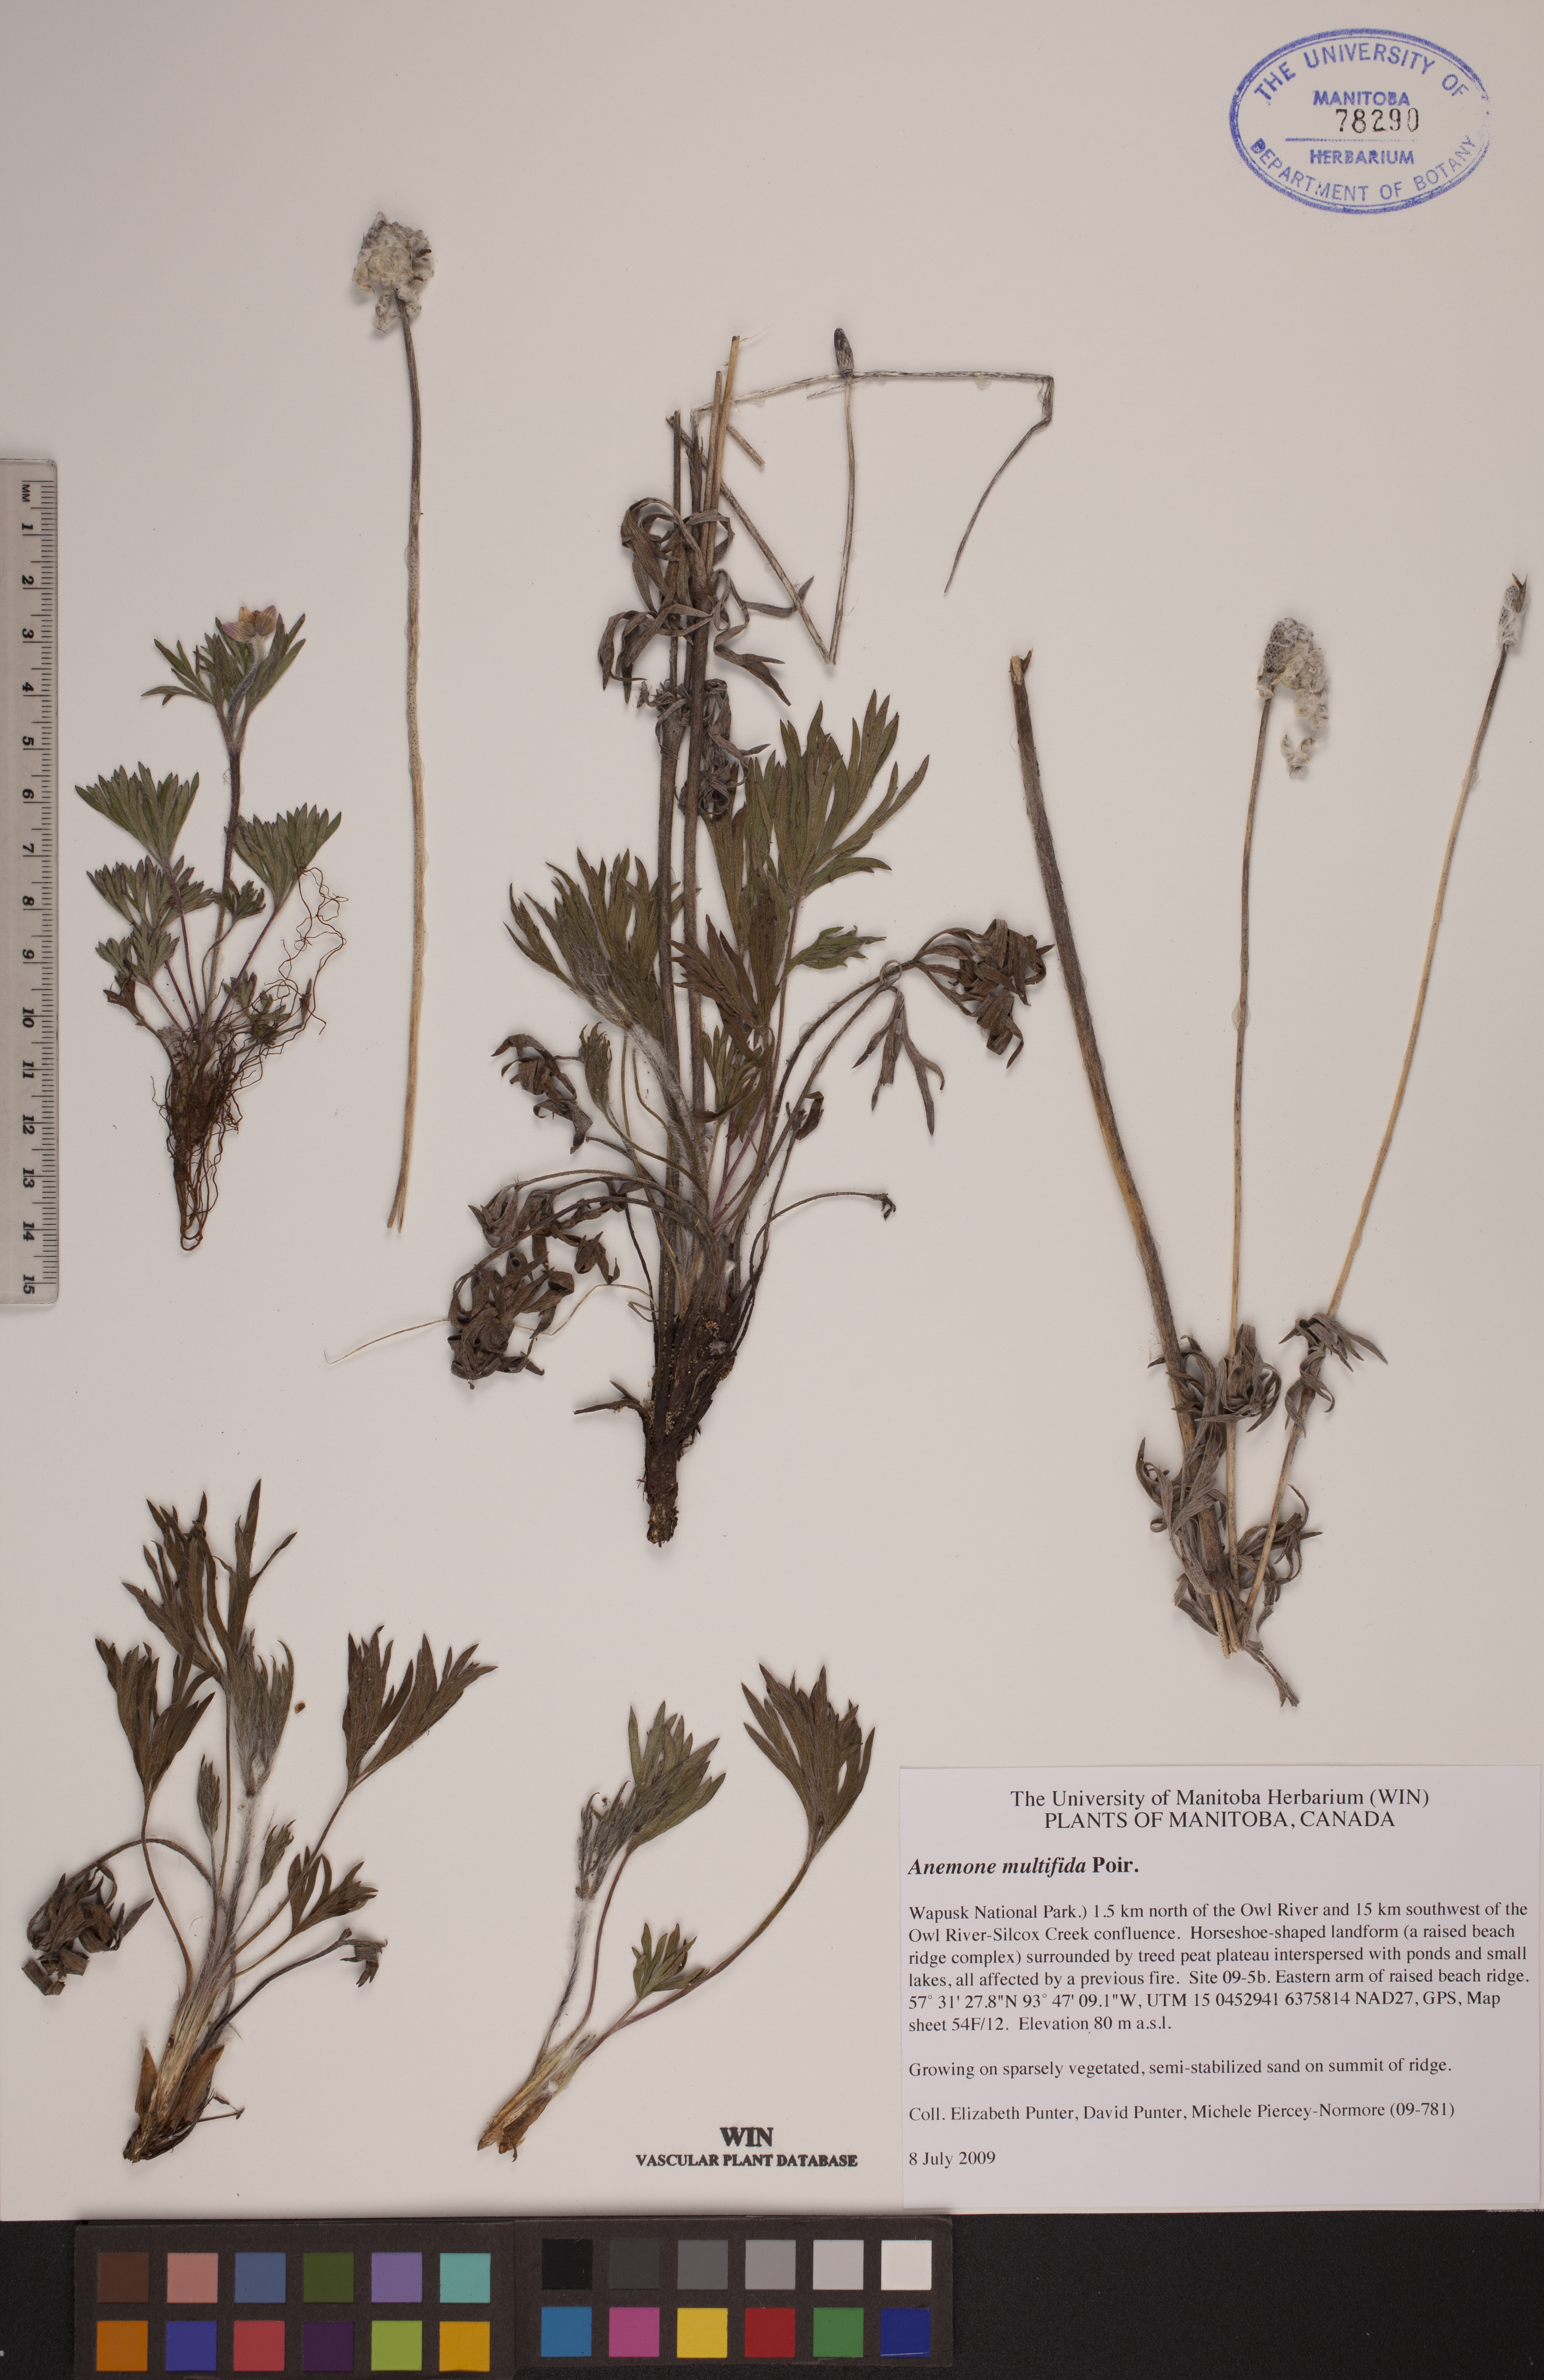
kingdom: Plantae
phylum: Tracheophyta
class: Magnoliopsida
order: Ranunculales
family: Ranunculaceae
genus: Anemone
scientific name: Anemone multifida
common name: Bird's-foot anemone
